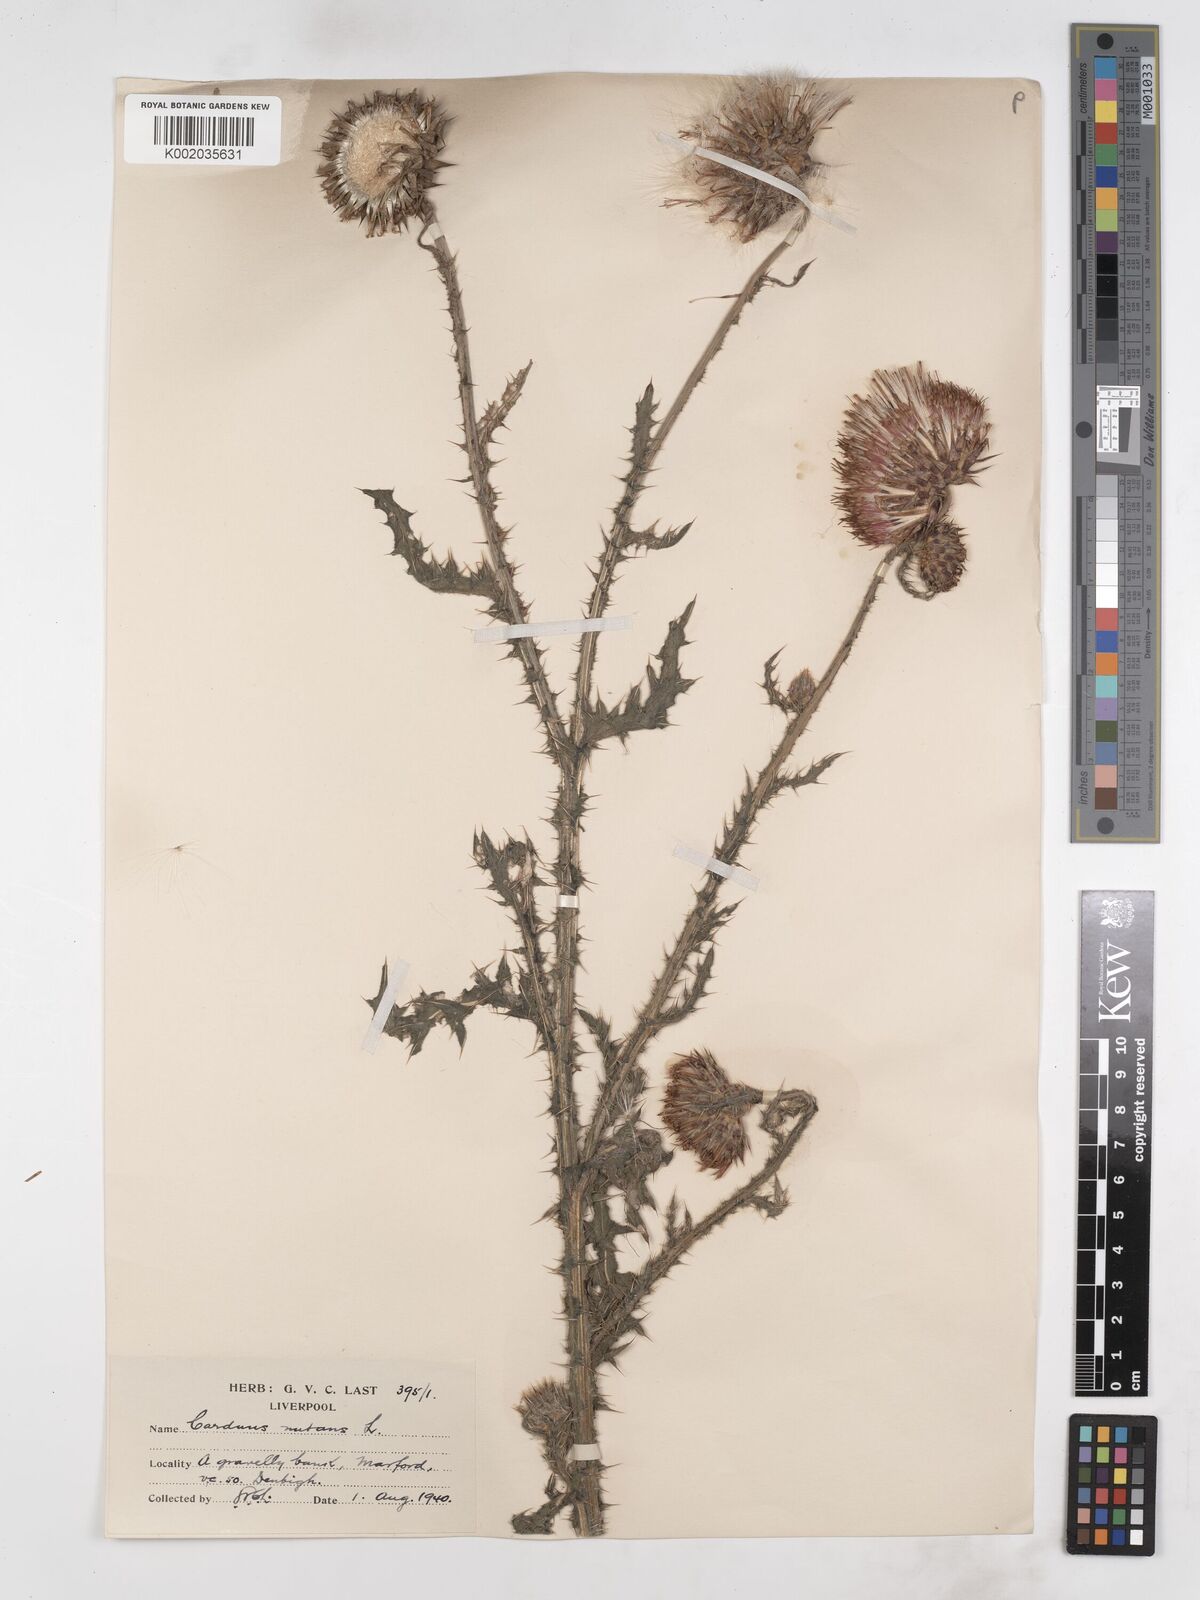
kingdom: Plantae
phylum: Tracheophyta
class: Magnoliopsida
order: Asterales
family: Asteraceae
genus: Carduus
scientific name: Carduus nutans
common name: Musk thistle
